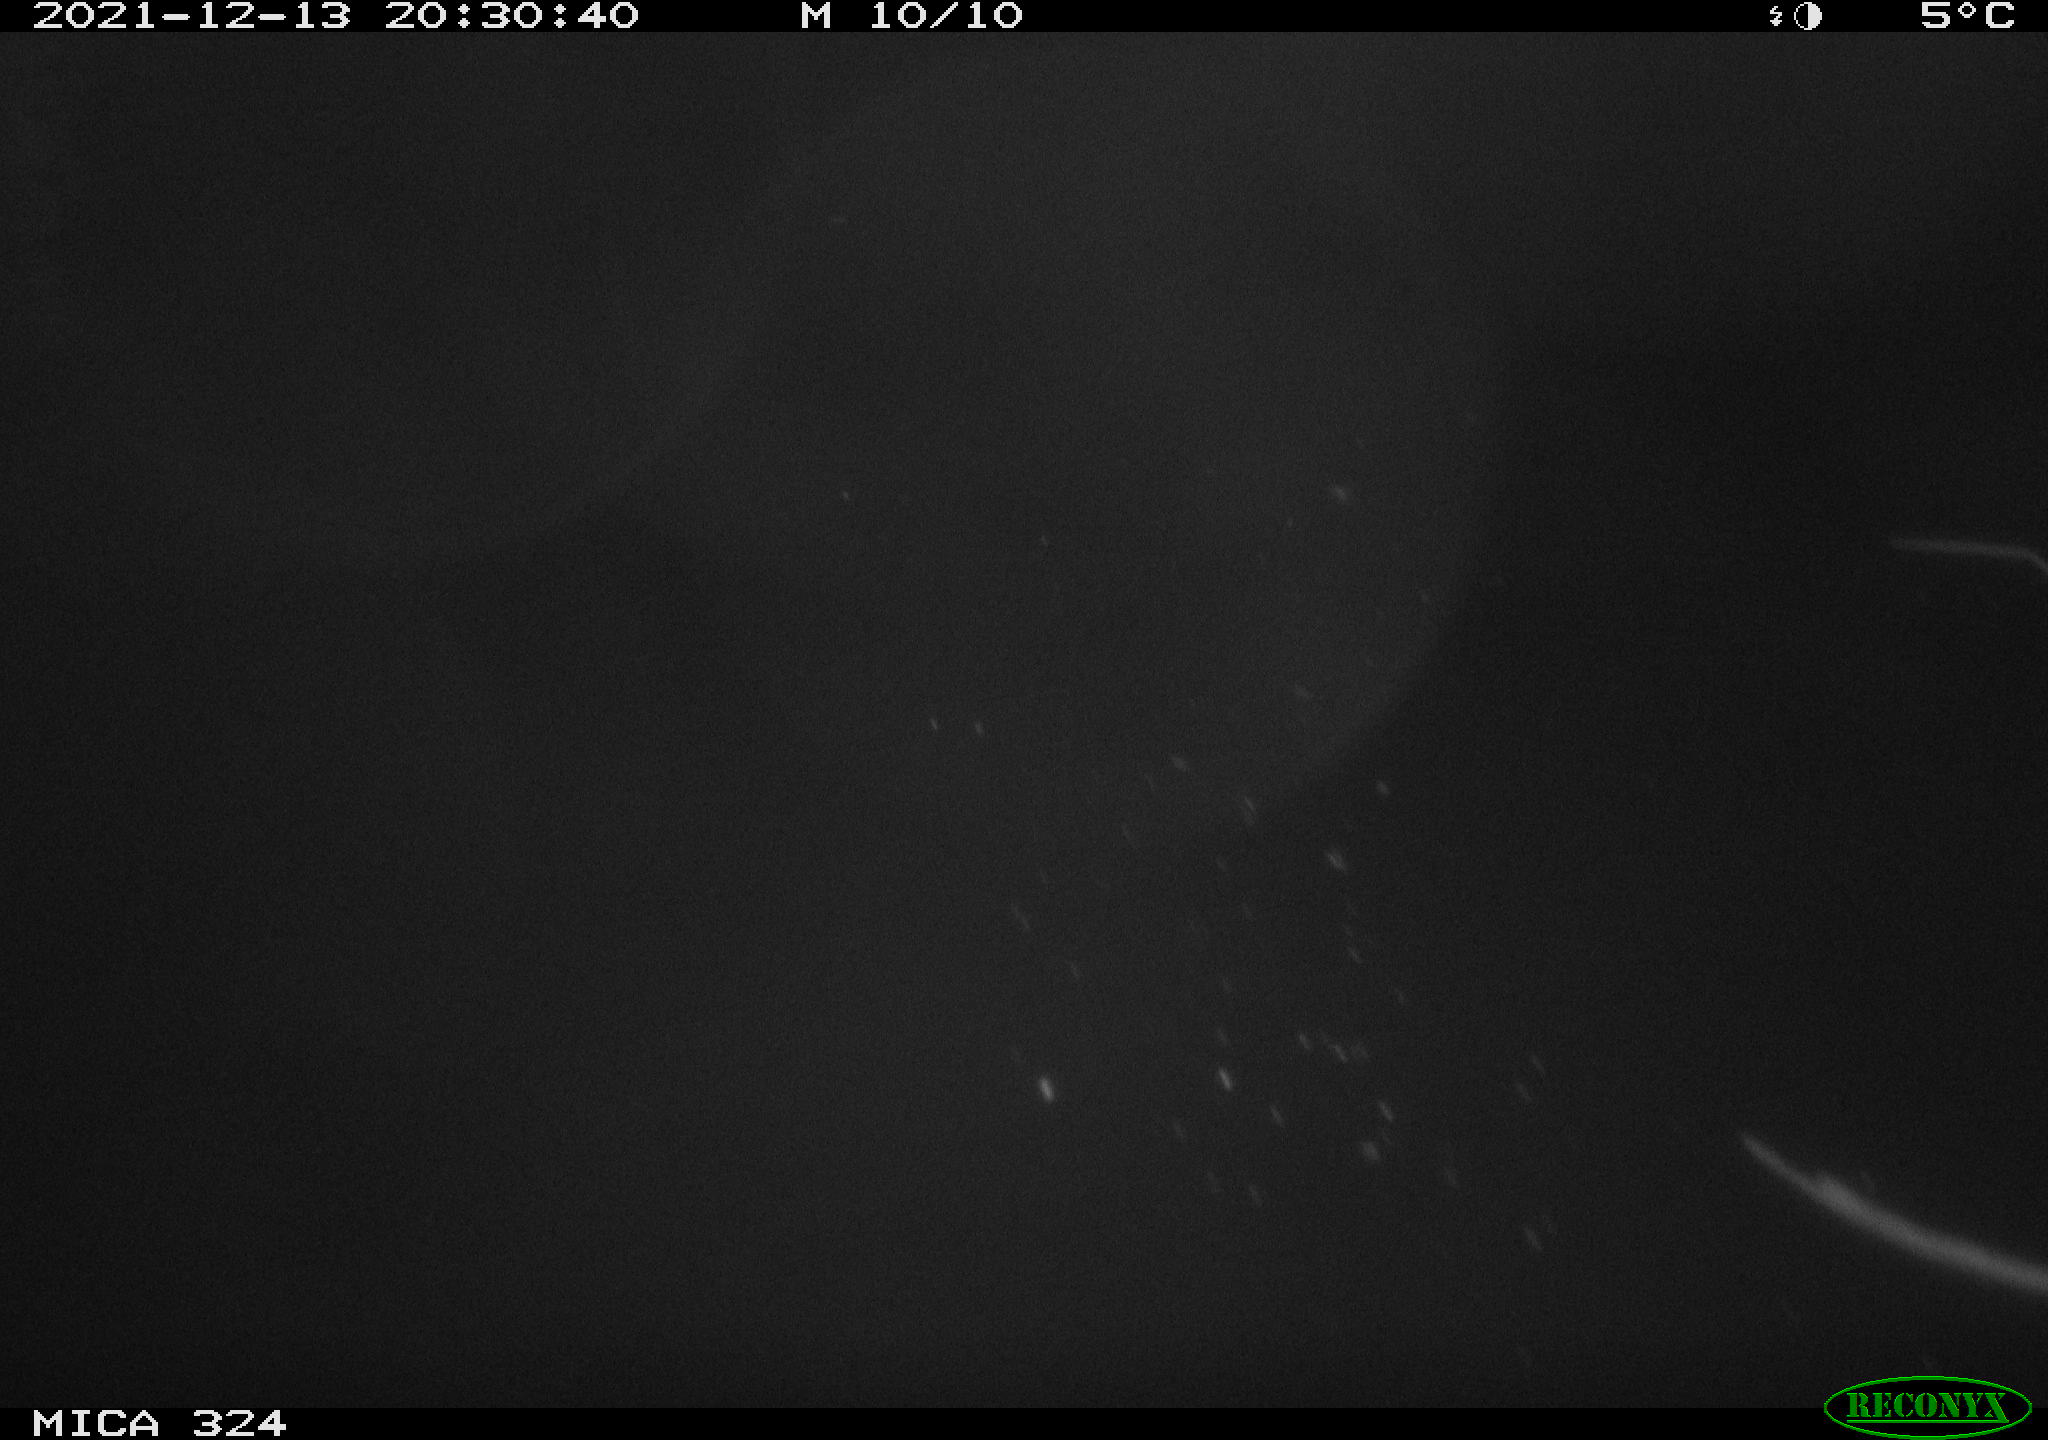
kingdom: Animalia
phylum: Chordata
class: Mammalia
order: Rodentia
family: Cricetidae
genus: Ondatra
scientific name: Ondatra zibethicus
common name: Muskrat
